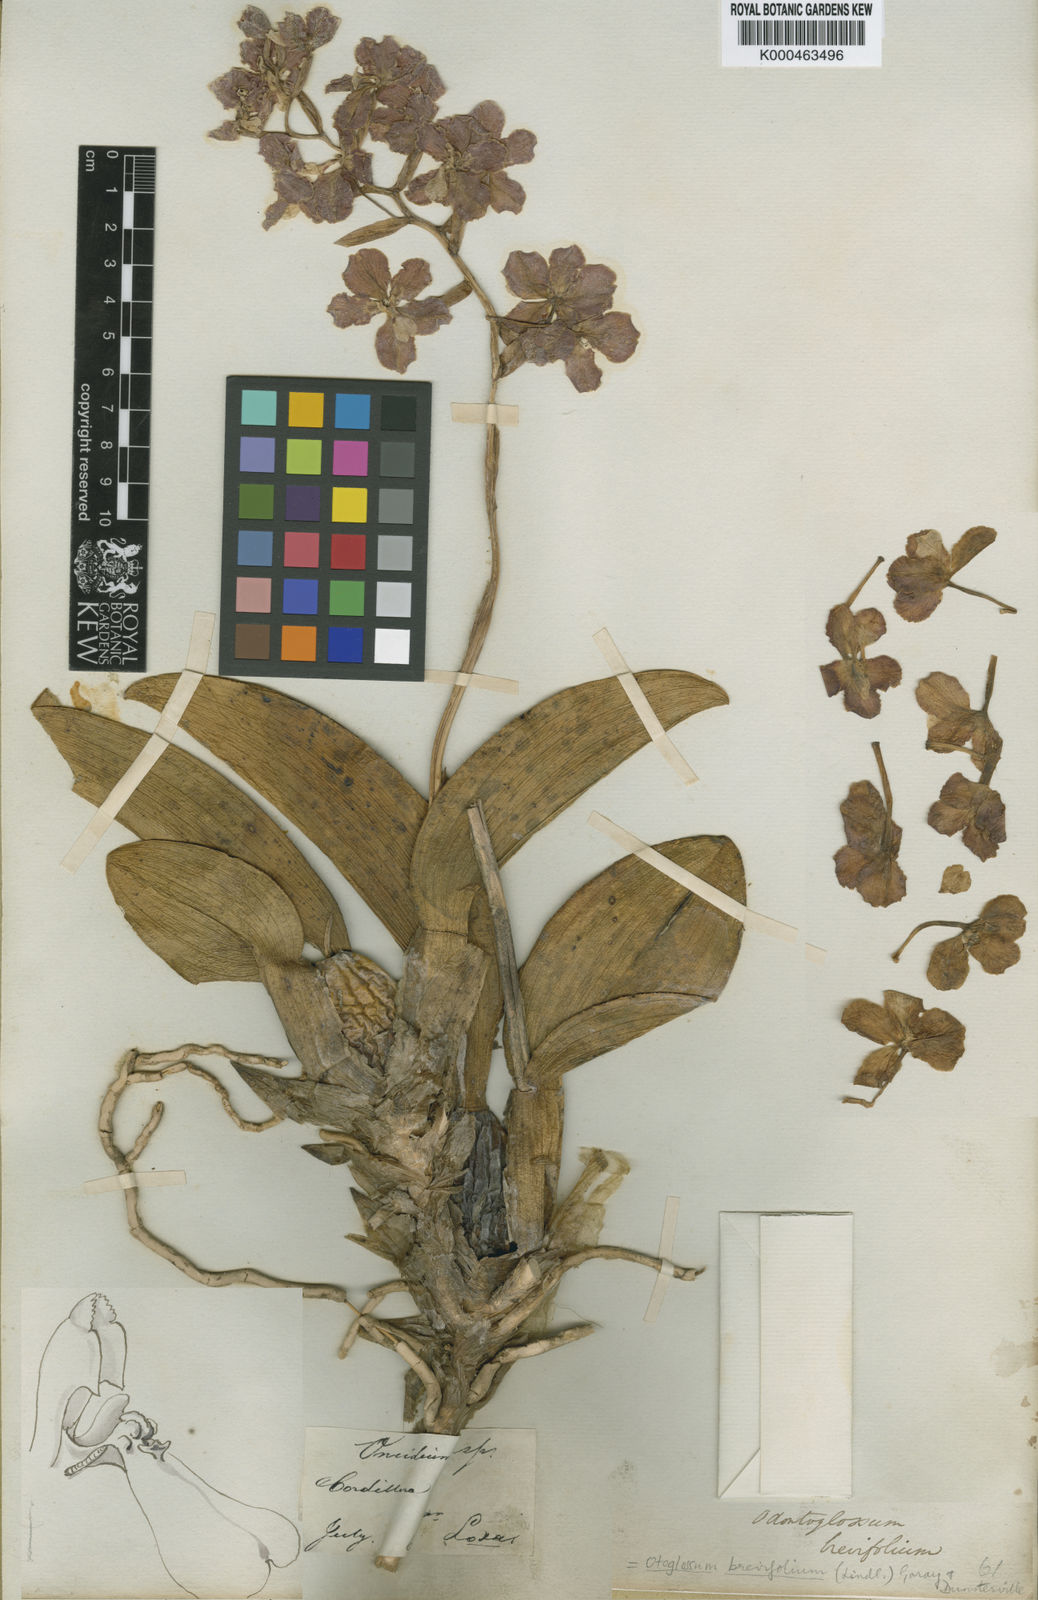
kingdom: Plantae
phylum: Tracheophyta
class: Liliopsida
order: Asparagales
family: Orchidaceae
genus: Otoglossum
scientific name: Otoglossum candelabrum
